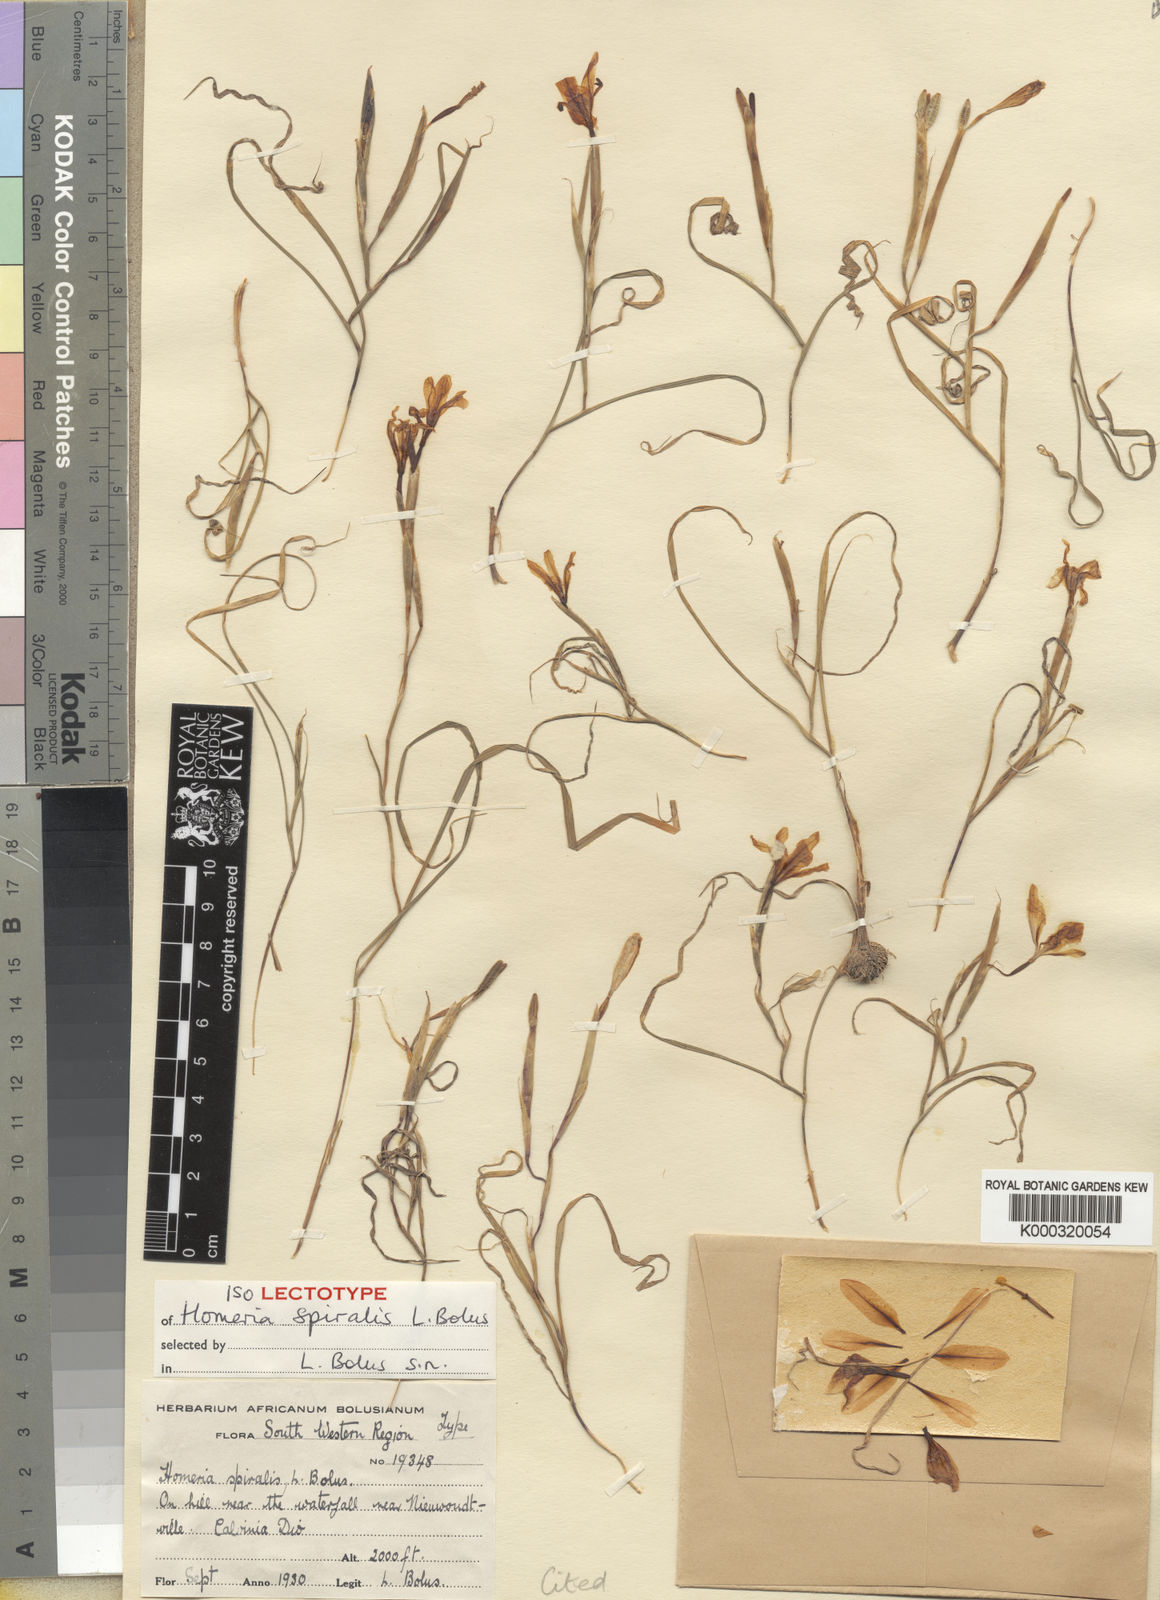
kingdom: Plantae
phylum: Tracheophyta
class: Liliopsida
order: Asparagales
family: Iridaceae
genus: Moraea
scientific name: Moraea aspera
